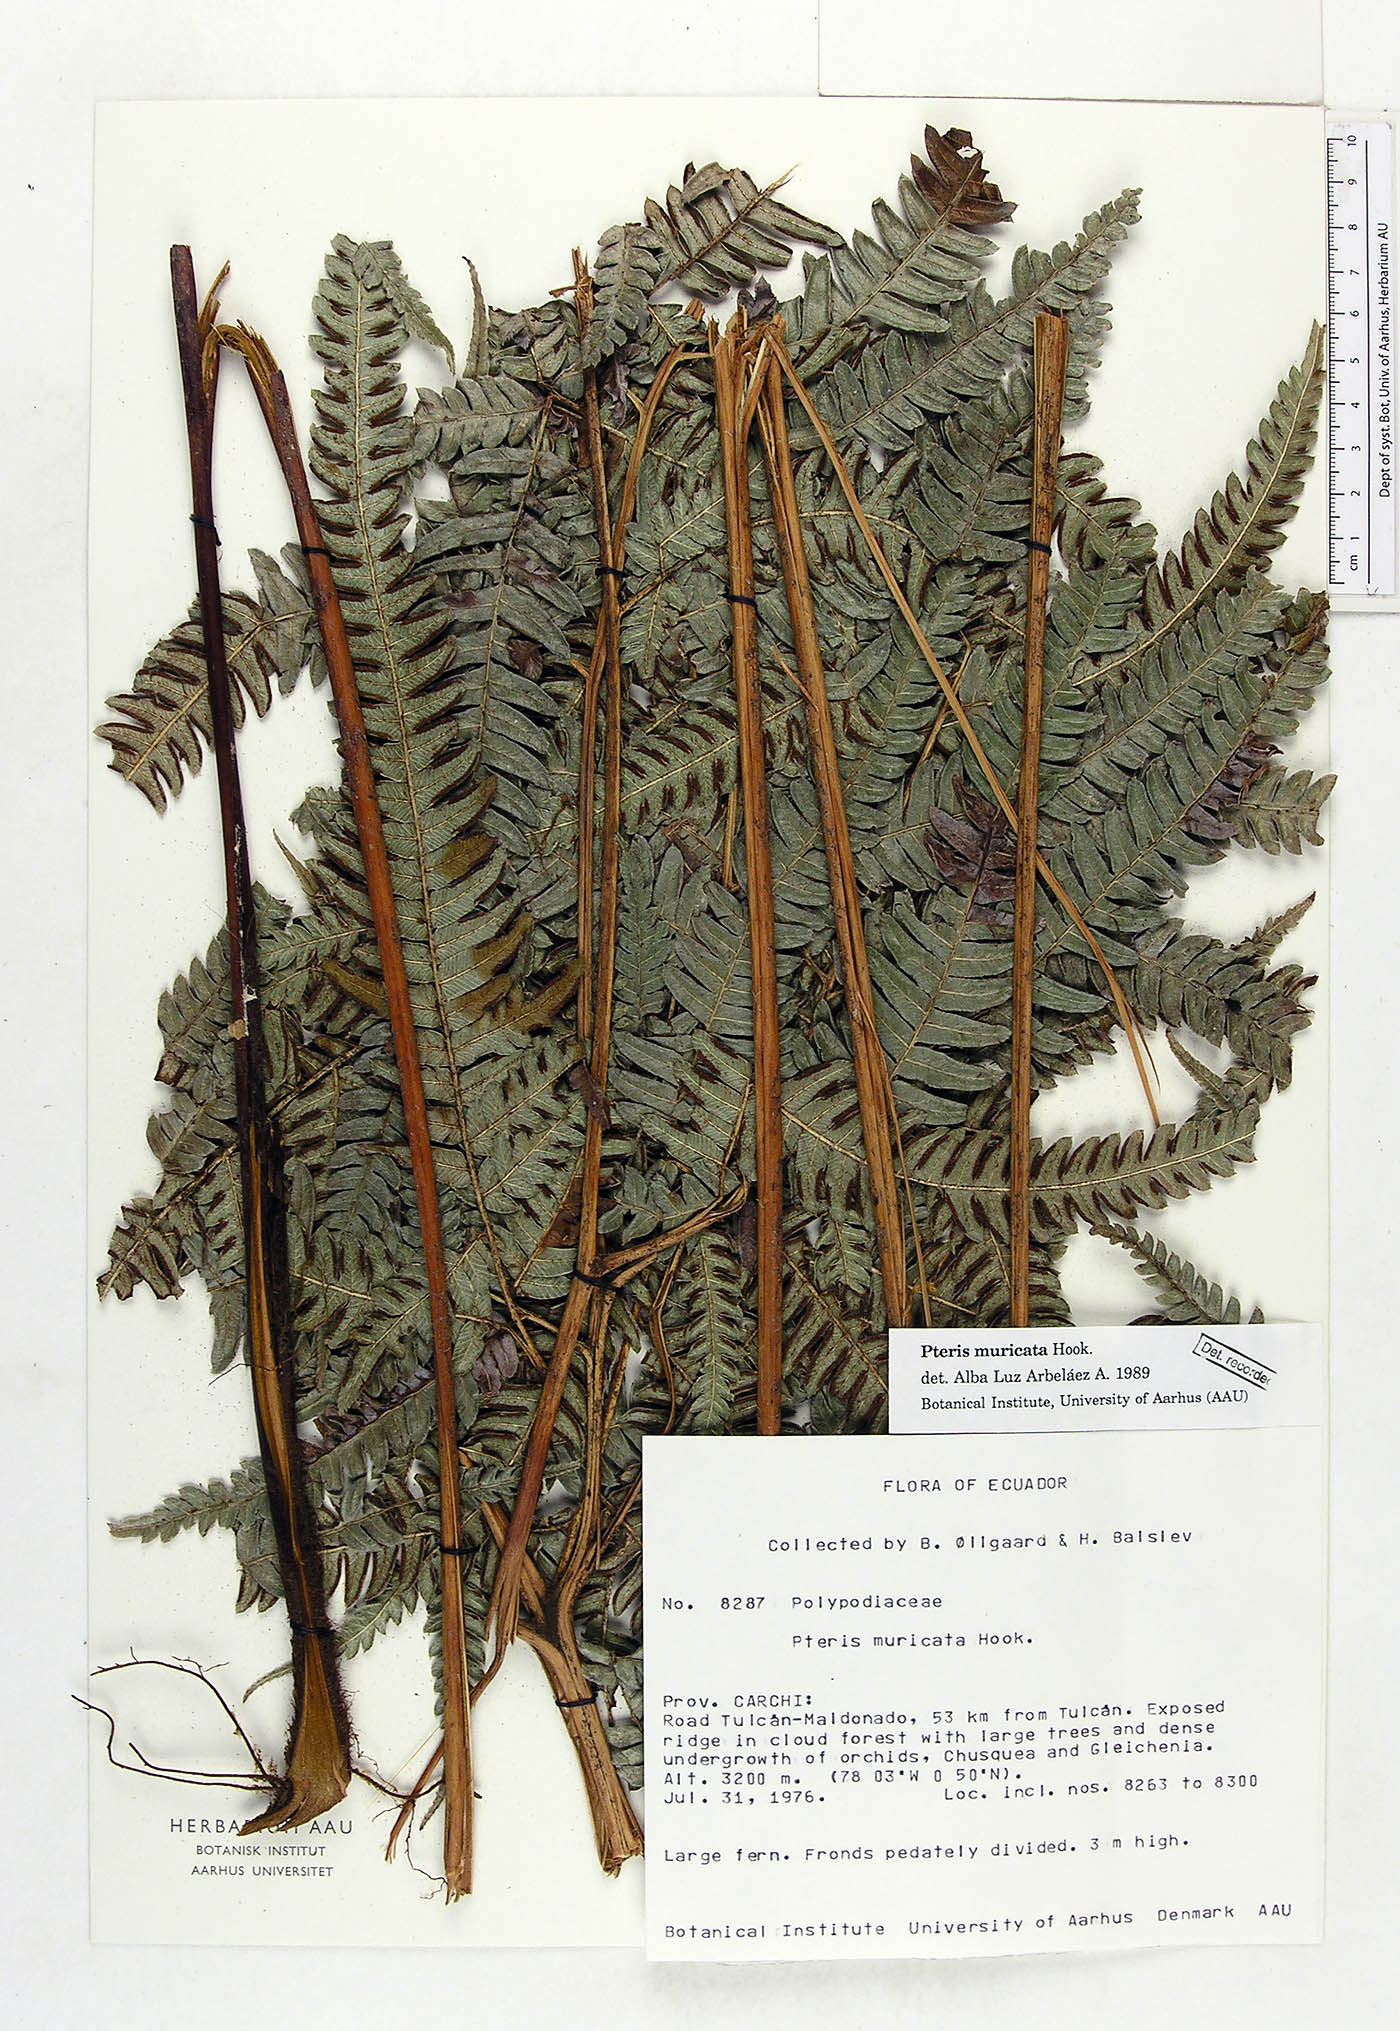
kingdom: Plantae
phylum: Tracheophyta
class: Polypodiopsida
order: Polypodiales
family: Pteridaceae
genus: Pteris
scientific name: Pteris muricata
